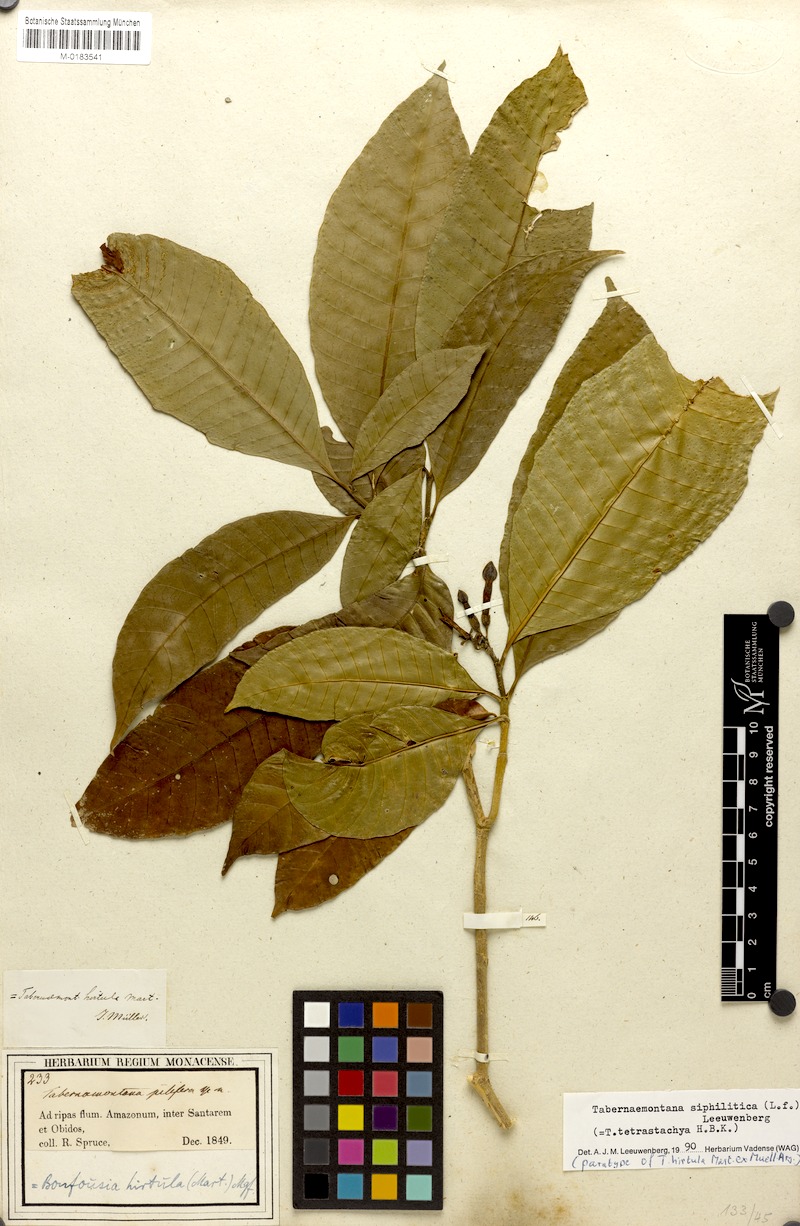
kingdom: Plantae
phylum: Tracheophyta
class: Magnoliopsida
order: Gentianales
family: Apocynaceae
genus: Tabernaemontana
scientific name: Tabernaemontana siphilitica
